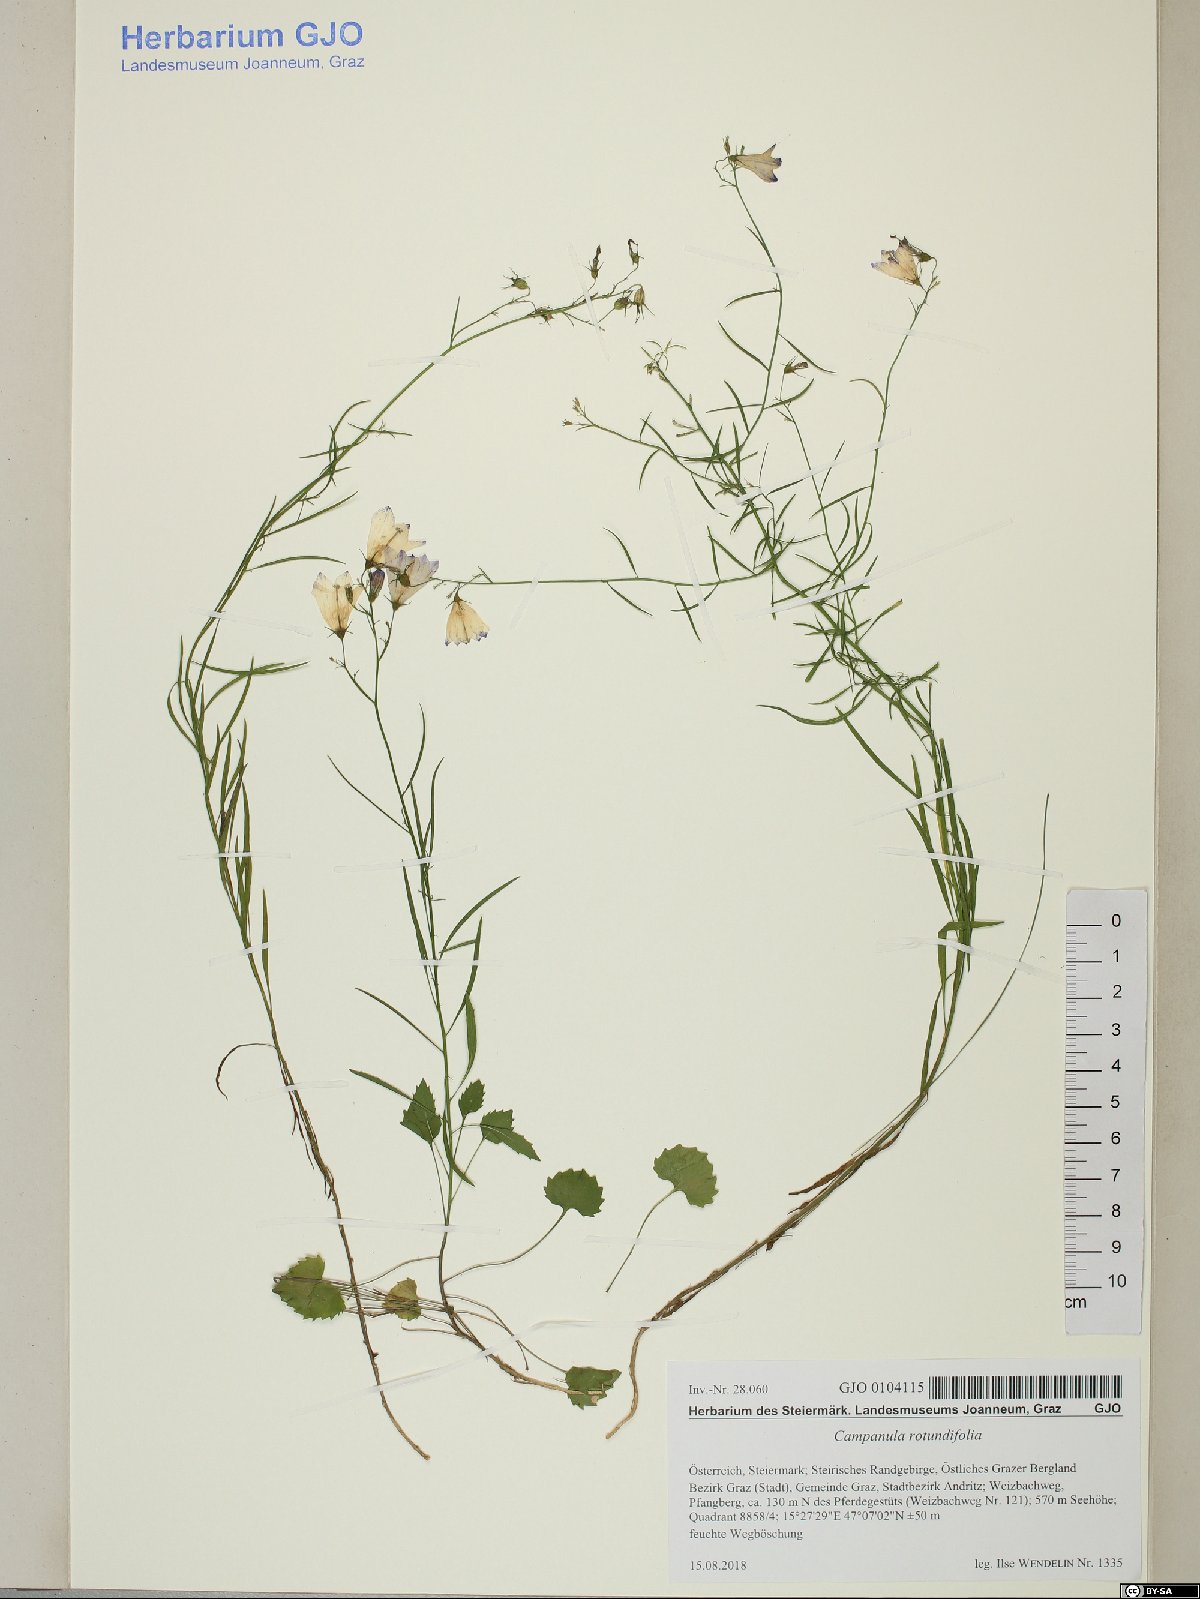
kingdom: Plantae
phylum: Tracheophyta
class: Magnoliopsida
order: Asterales
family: Campanulaceae
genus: Campanula
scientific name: Campanula rotundifolia
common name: Harebell
